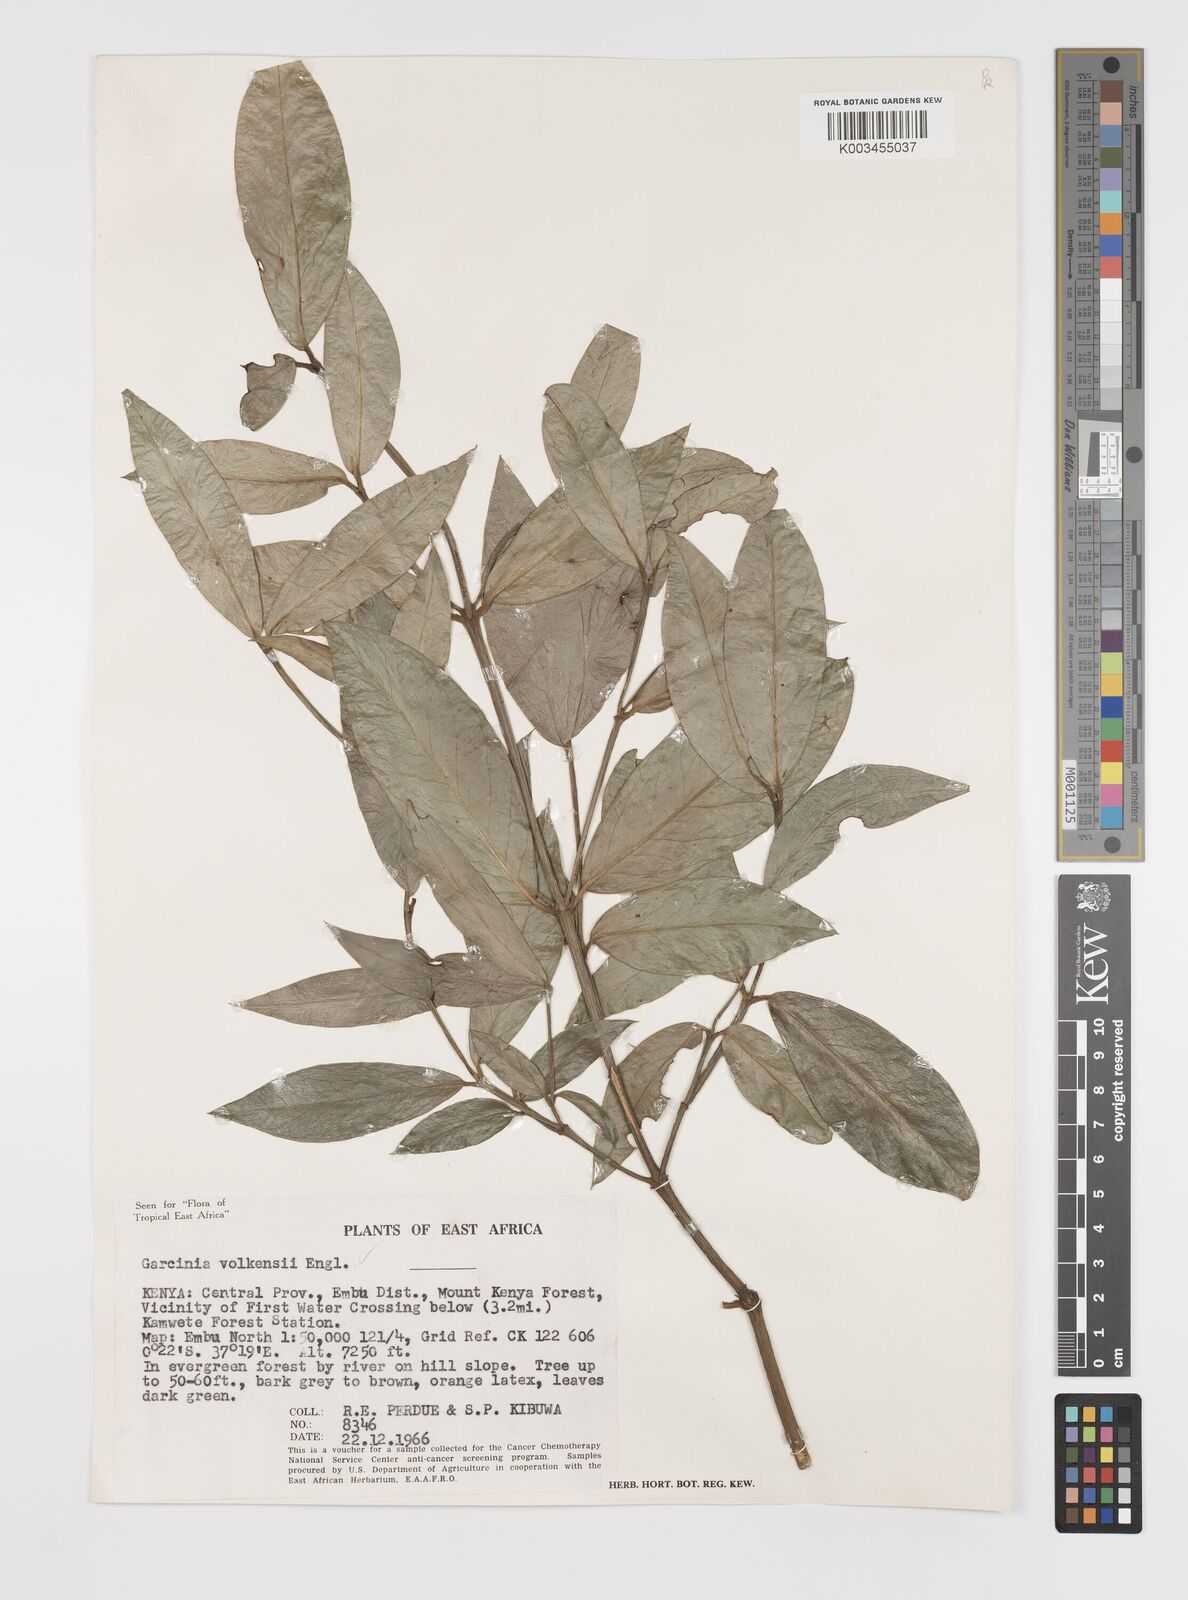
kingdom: Plantae
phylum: Tracheophyta
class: Magnoliopsida
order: Malpighiales
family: Clusiaceae
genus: Garcinia
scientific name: Garcinia volkensii
